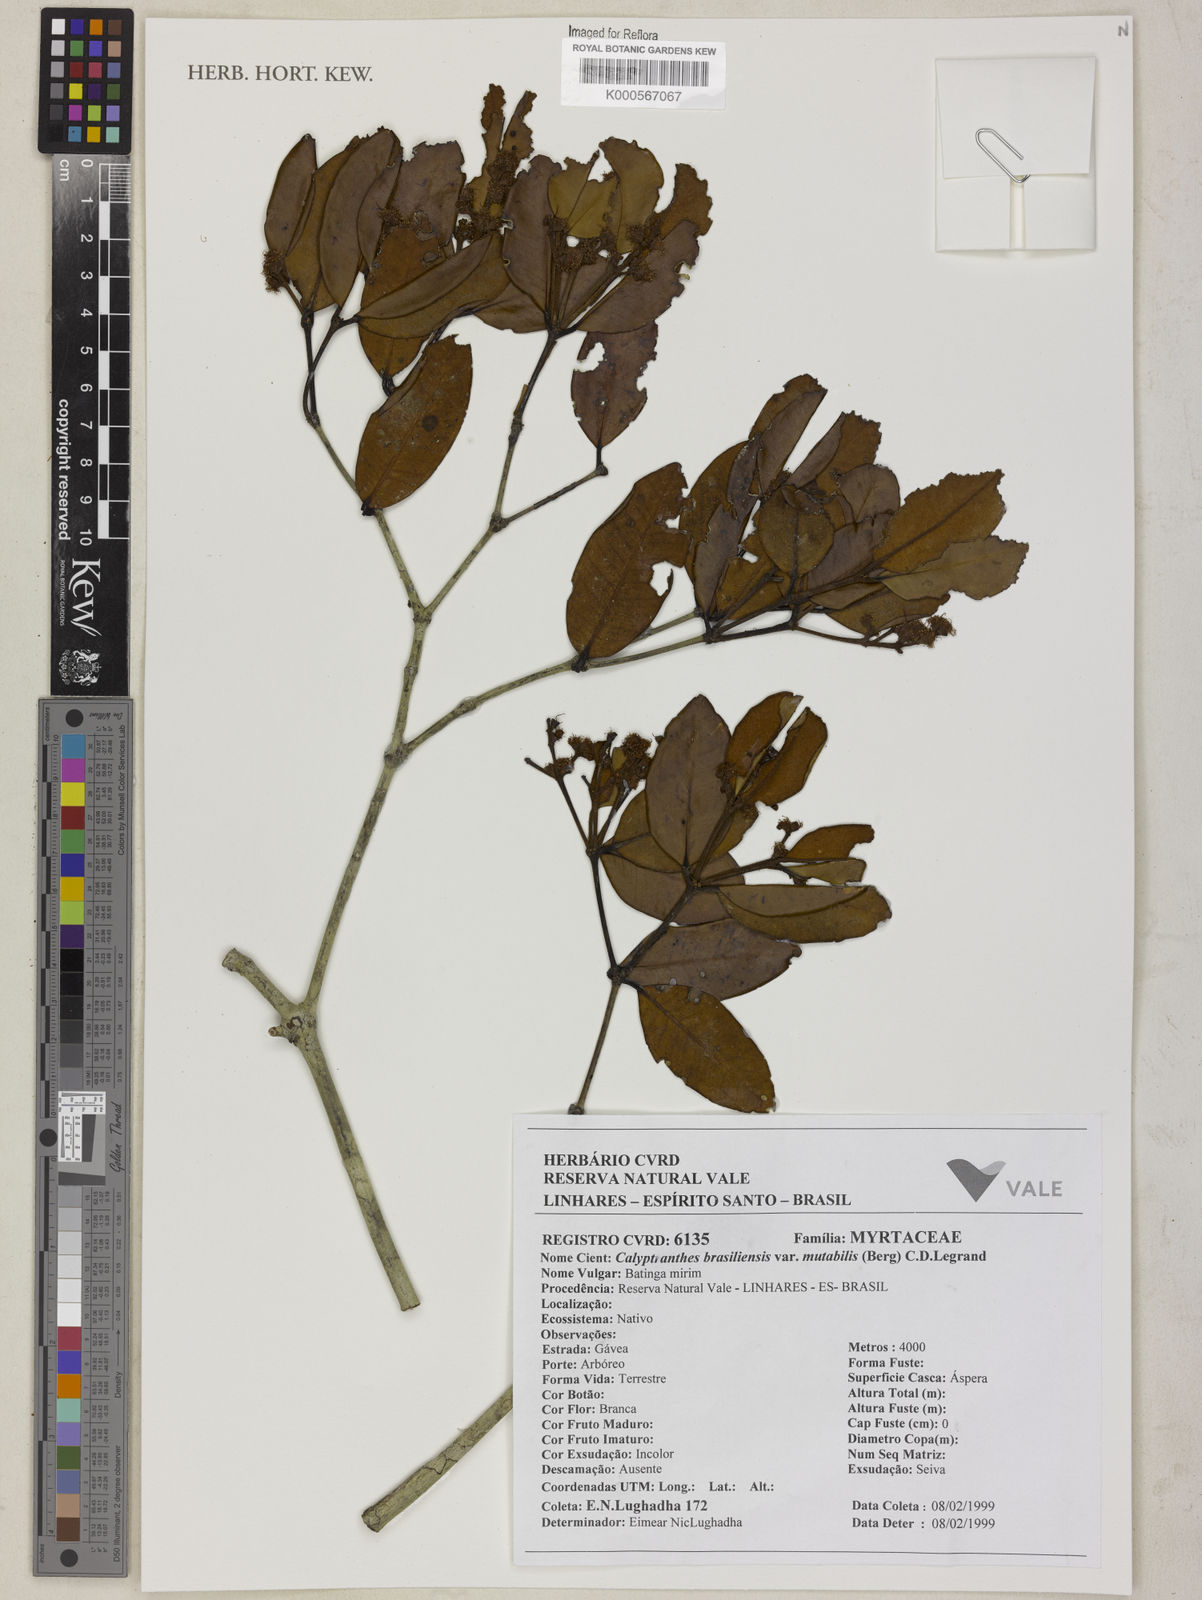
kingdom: Plantae
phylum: Tracheophyta
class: Magnoliopsida
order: Myrtales
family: Myrtaceae
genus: Myrcia
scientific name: Myrcia neobrasiliensis
